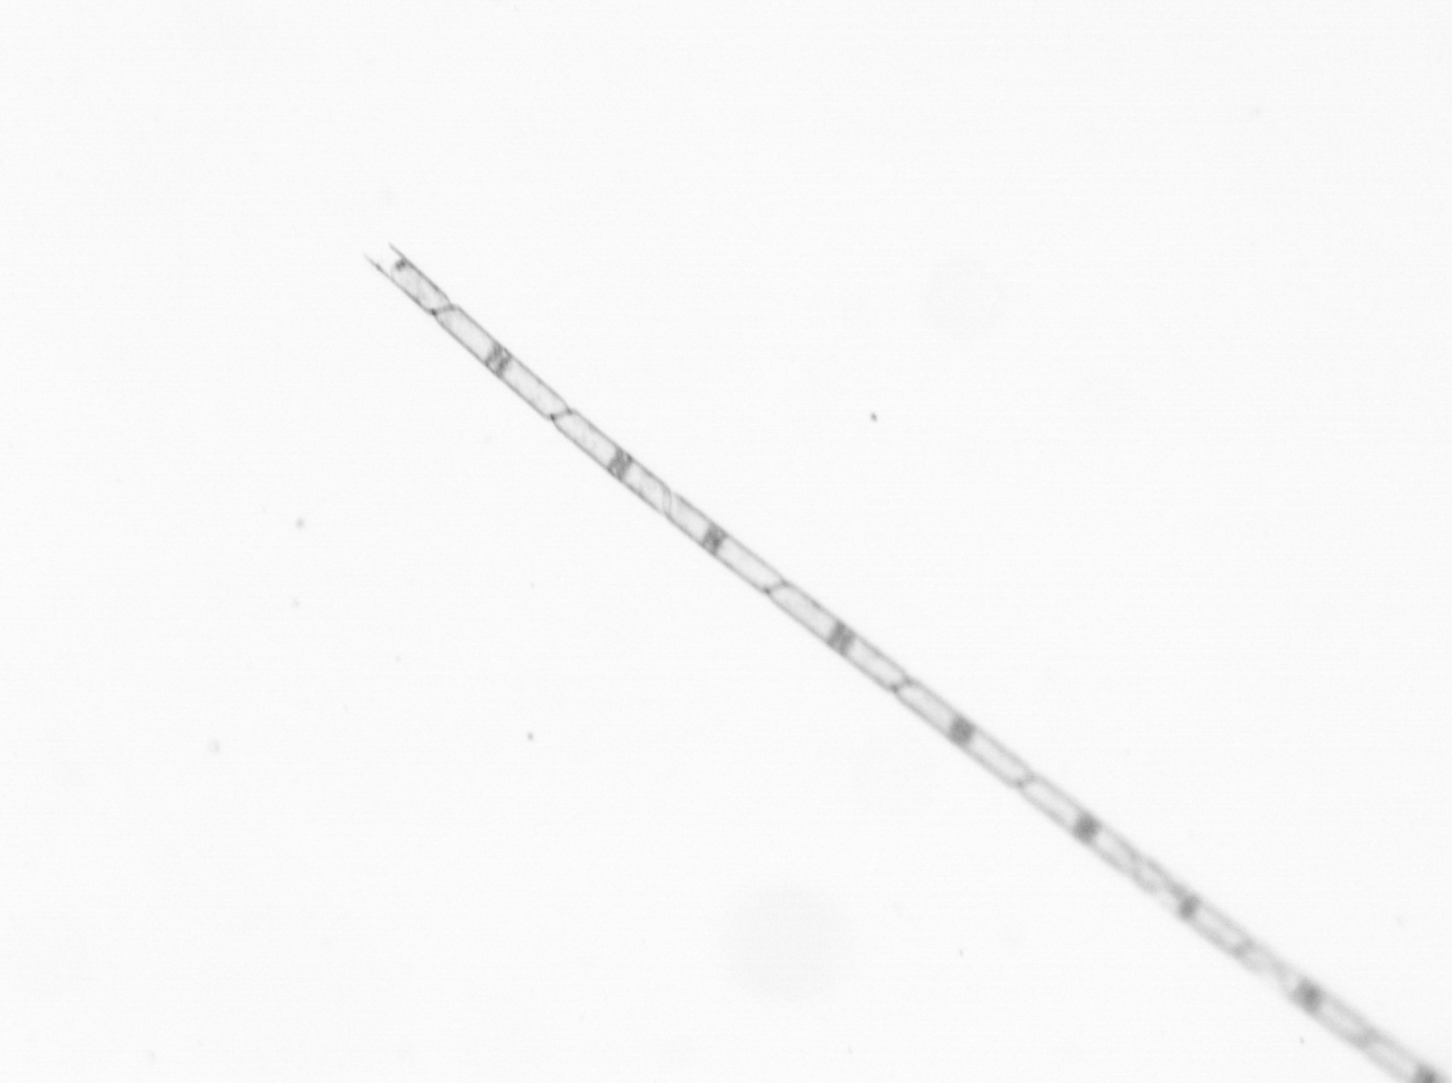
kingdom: Chromista
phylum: Ochrophyta
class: Bacillariophyceae
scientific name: Bacillariophyceae
